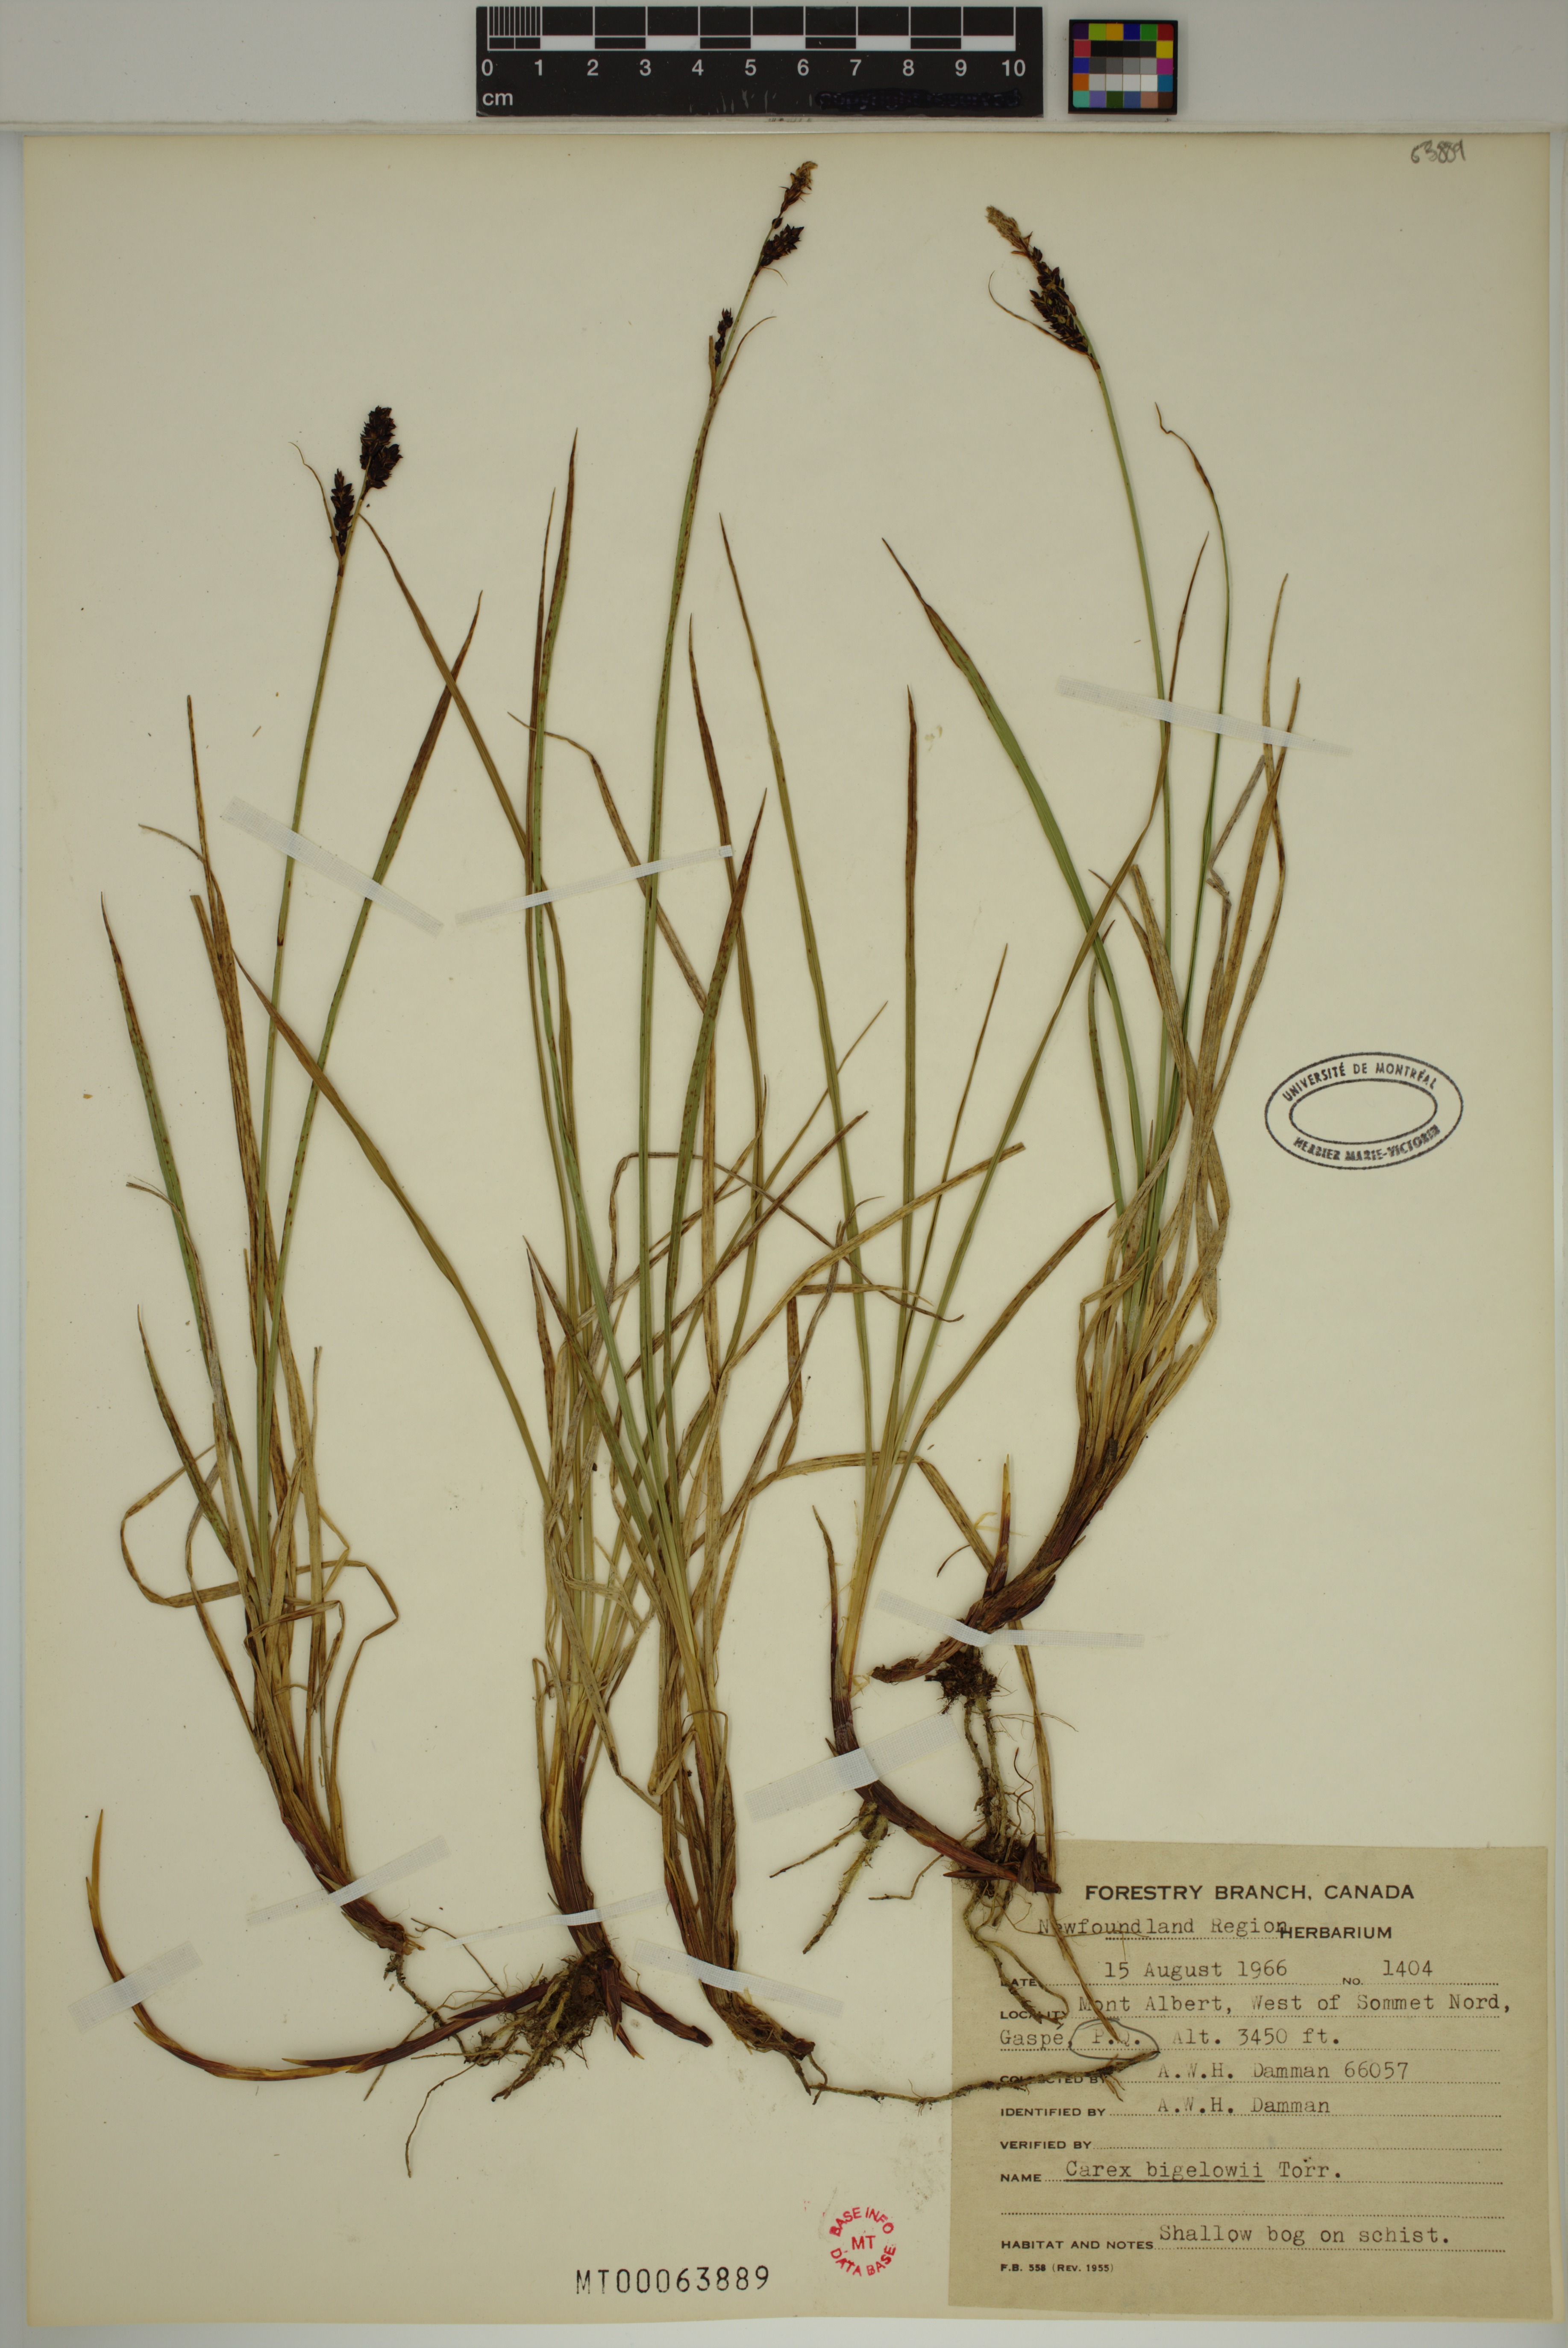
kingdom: Plantae
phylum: Tracheophyta
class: Liliopsida
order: Poales
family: Cyperaceae
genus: Carex
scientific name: Carex bigelowii
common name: Stiff sedge
